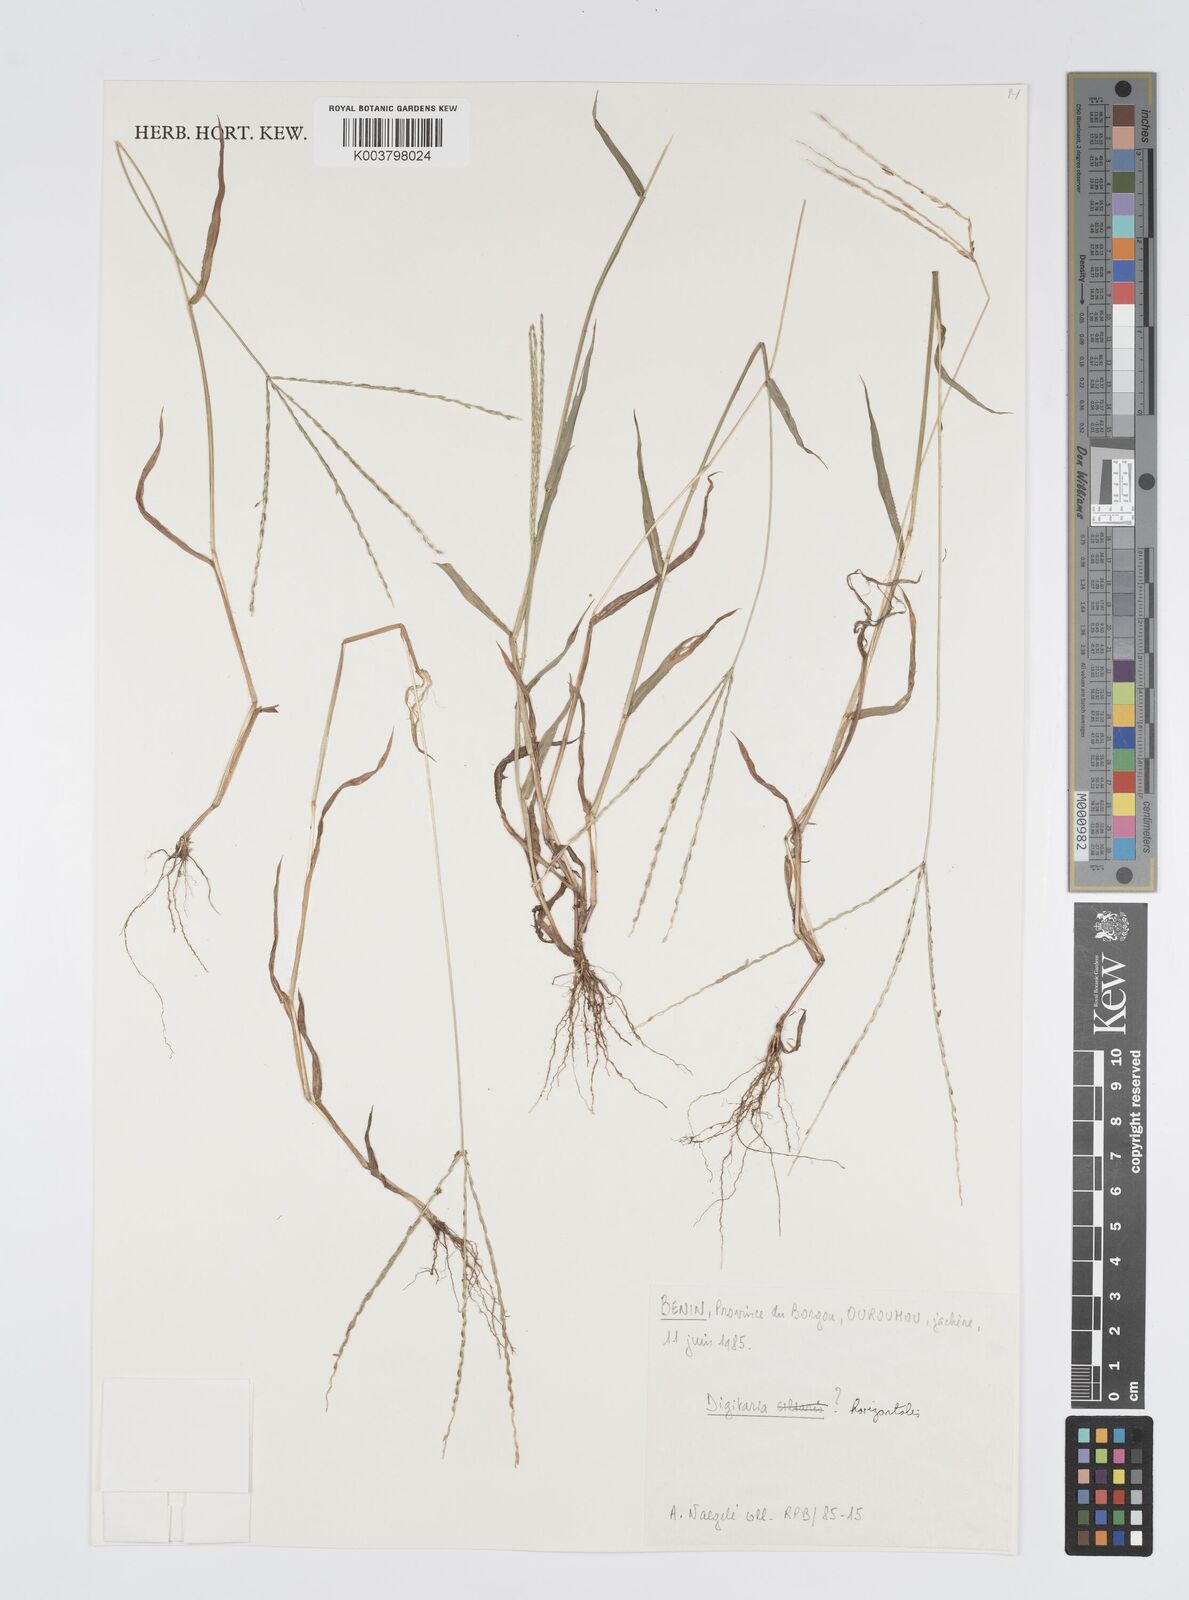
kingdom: Plantae
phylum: Tracheophyta
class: Liliopsida
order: Poales
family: Poaceae
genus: Digitaria
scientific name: Digitaria horizontalis
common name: Jamaican crabgrass
